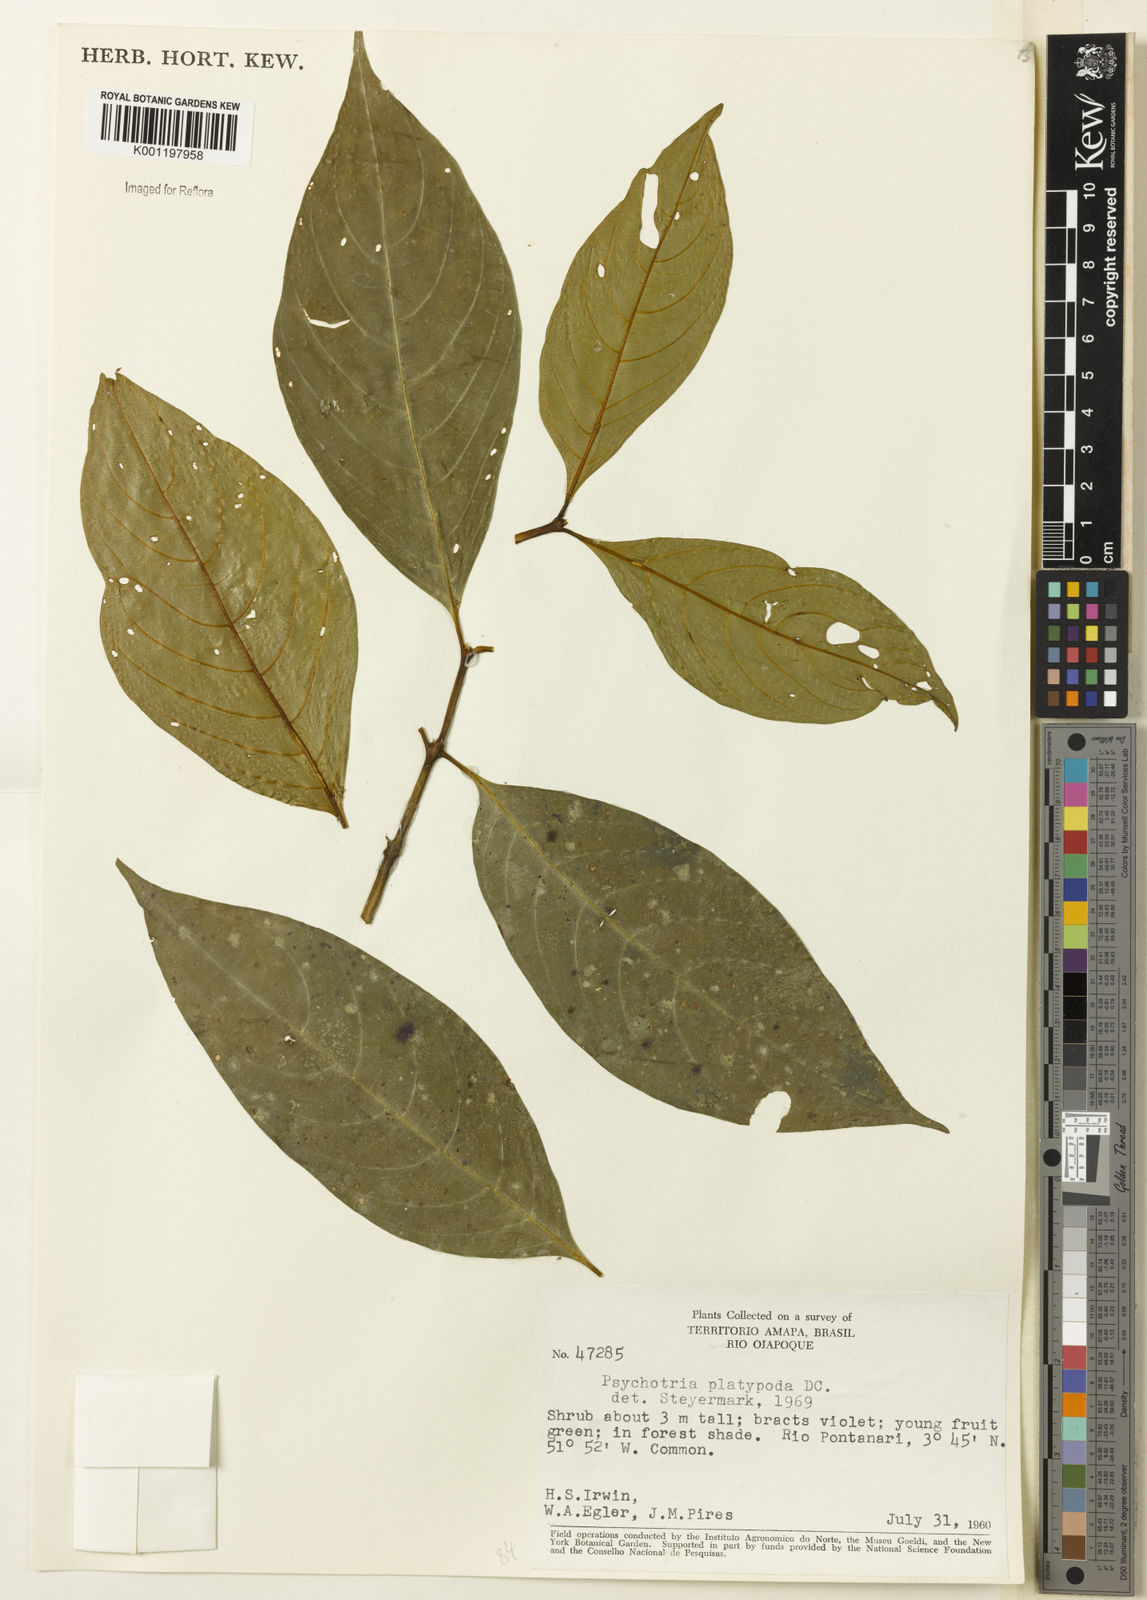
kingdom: Plantae
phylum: Tracheophyta
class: Magnoliopsida
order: Gentianales
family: Rubiaceae
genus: Palicourea
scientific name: Palicourea dichotoma
